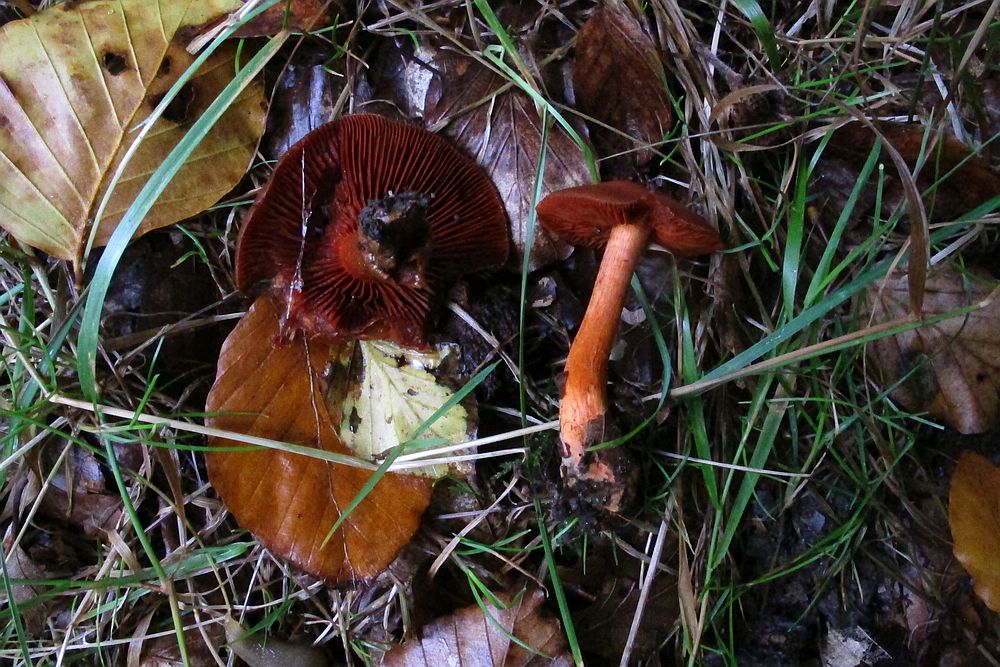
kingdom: Fungi
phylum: Basidiomycota
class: Agaricomycetes
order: Agaricales
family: Cortinariaceae
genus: Cortinarius
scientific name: Cortinarius cinnabarinus
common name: cinnober-slørhat
